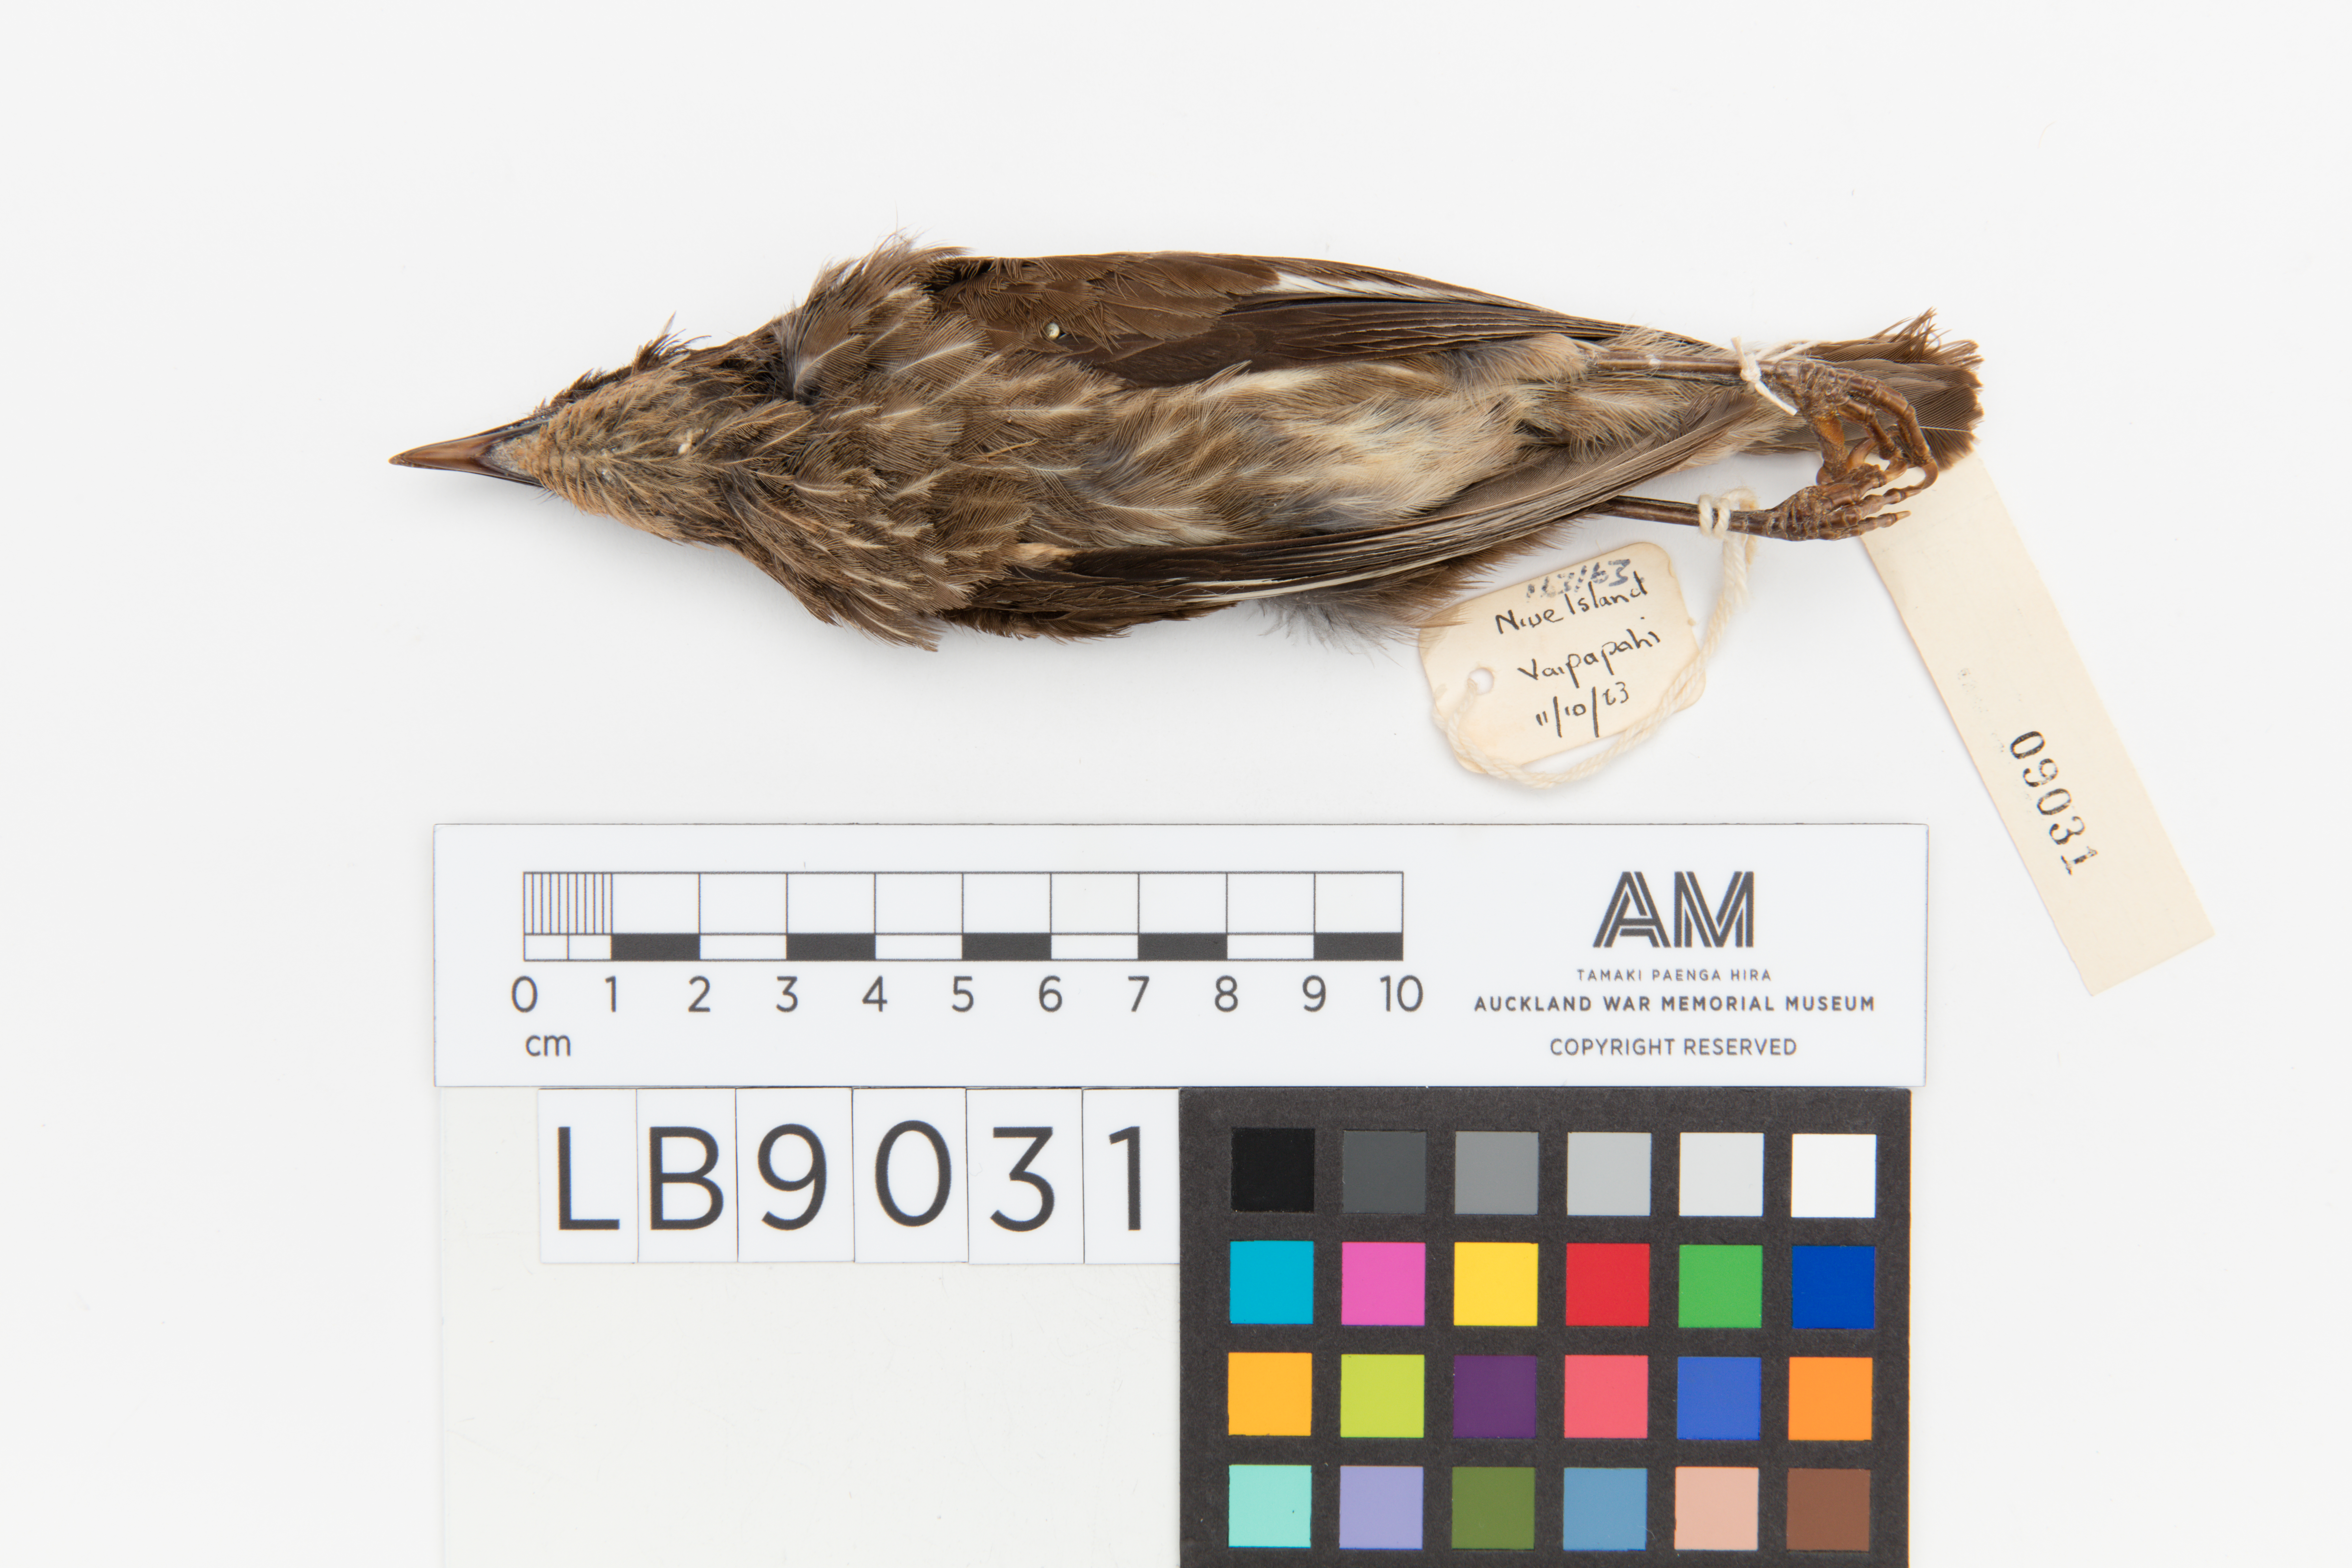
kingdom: Animalia
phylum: Chordata
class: Aves
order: Passeriformes
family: Sturnidae
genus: Aplonis
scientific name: Aplonis tabuensis
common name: Polynesian starling
